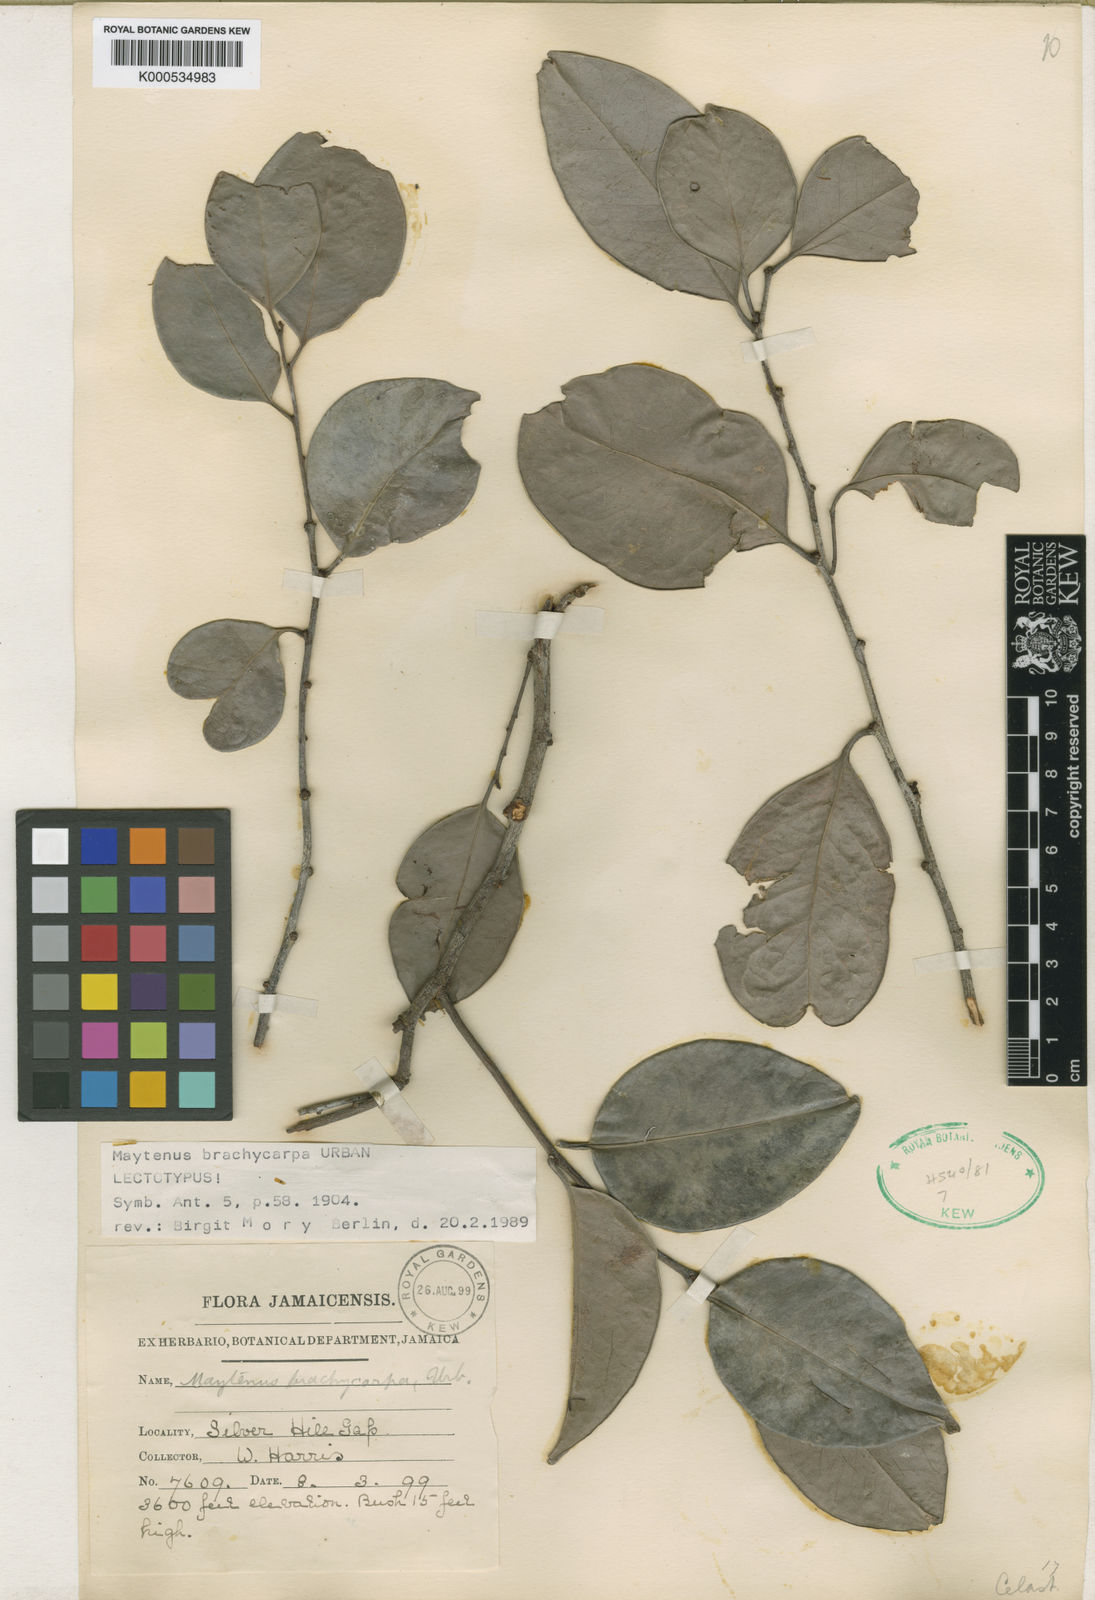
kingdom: Plantae
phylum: Tracheophyta
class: Magnoliopsida
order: Celastrales
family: Celastraceae
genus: Monteverdia
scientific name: Monteverdia jamaicensis
